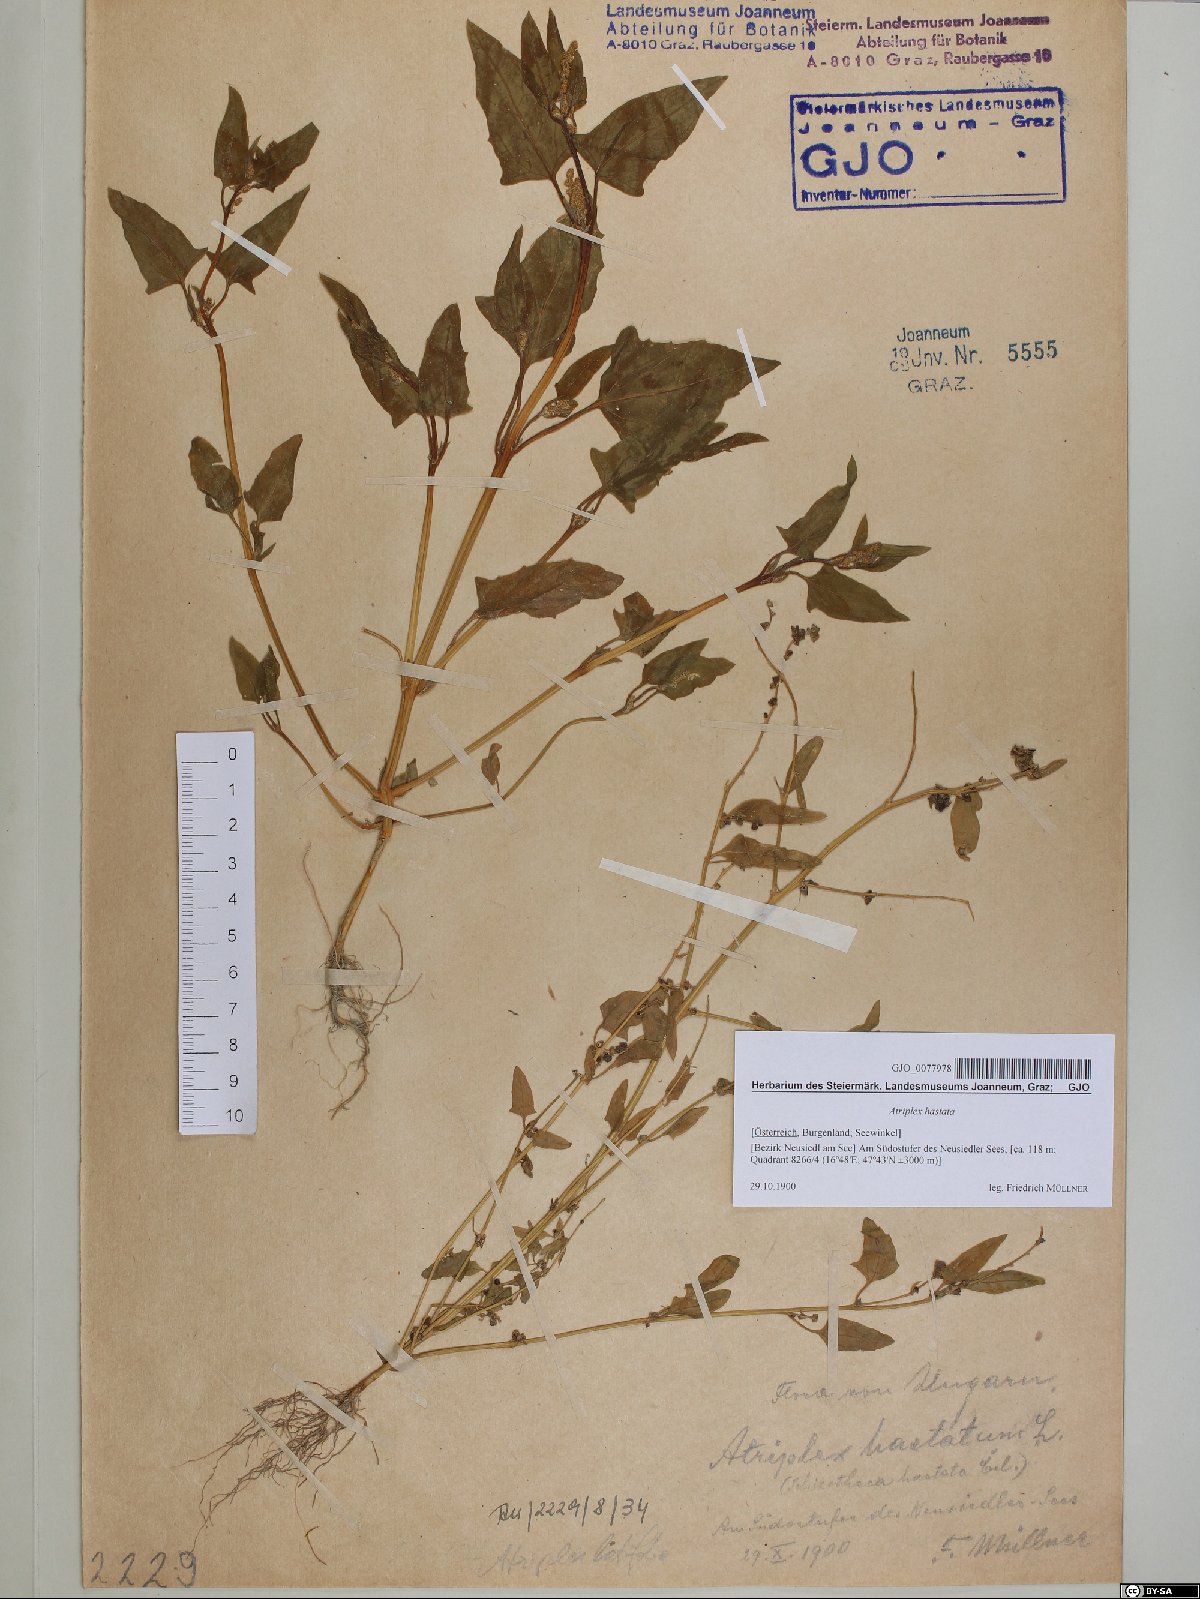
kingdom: Plantae
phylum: Tracheophyta
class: Magnoliopsida
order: Caryophyllales
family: Amaranthaceae
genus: Atriplex
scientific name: Atriplex calotheca
